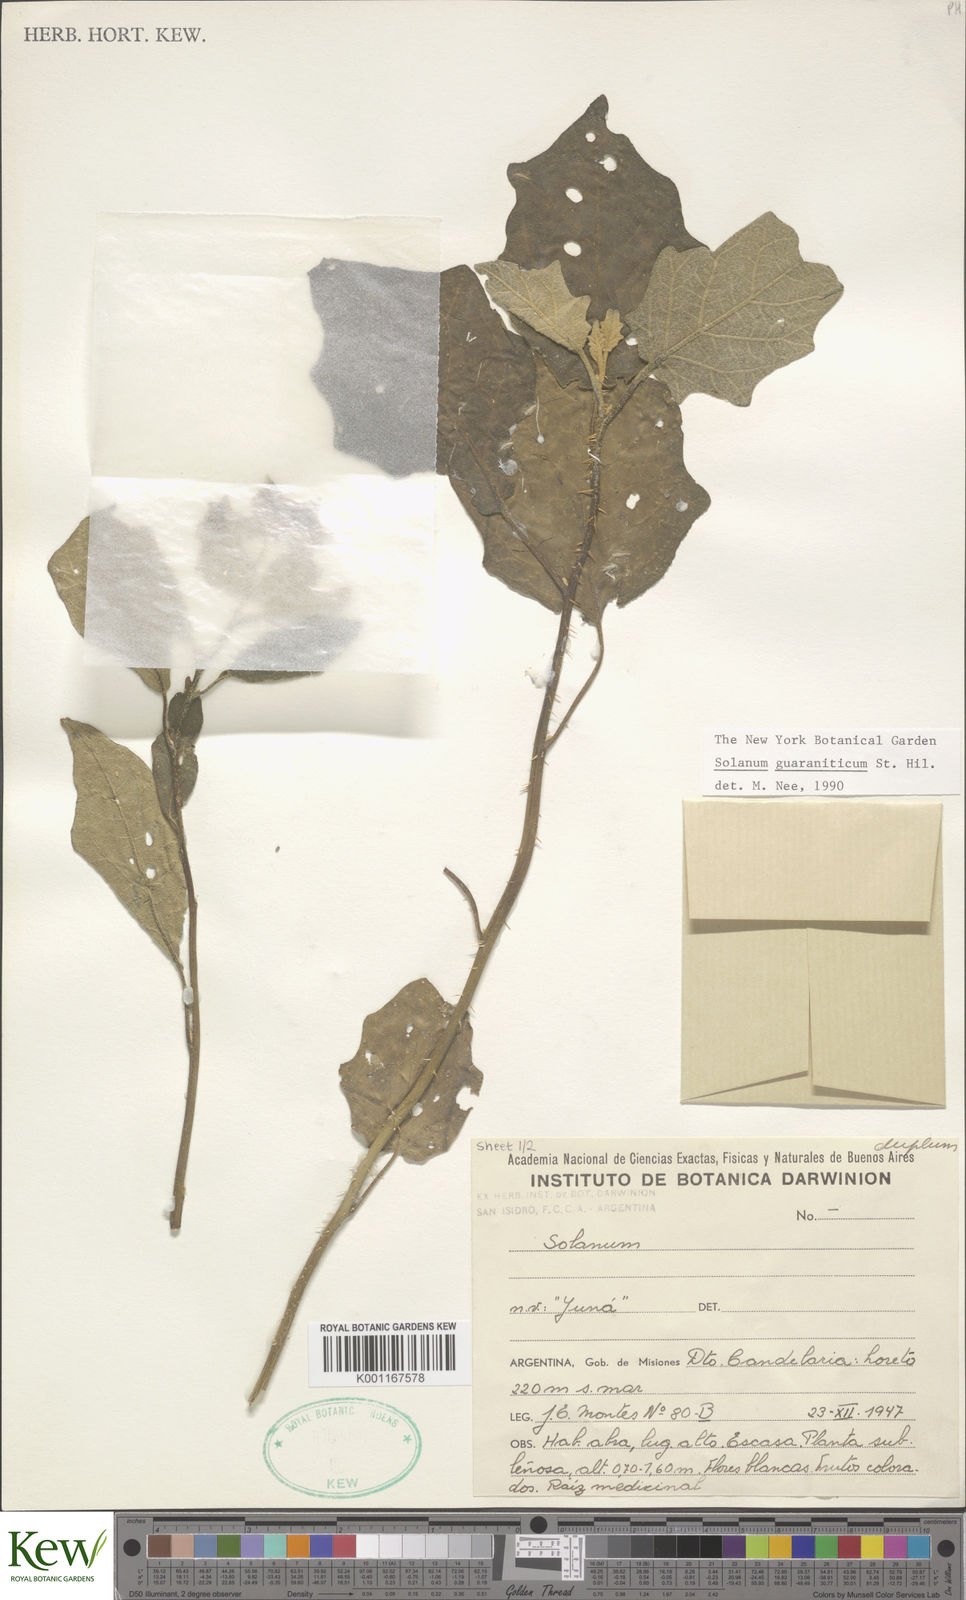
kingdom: Plantae
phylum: Tracheophyta
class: Magnoliopsida
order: Solanales
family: Solanaceae
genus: Solanum
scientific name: Solanum guaraniticum
